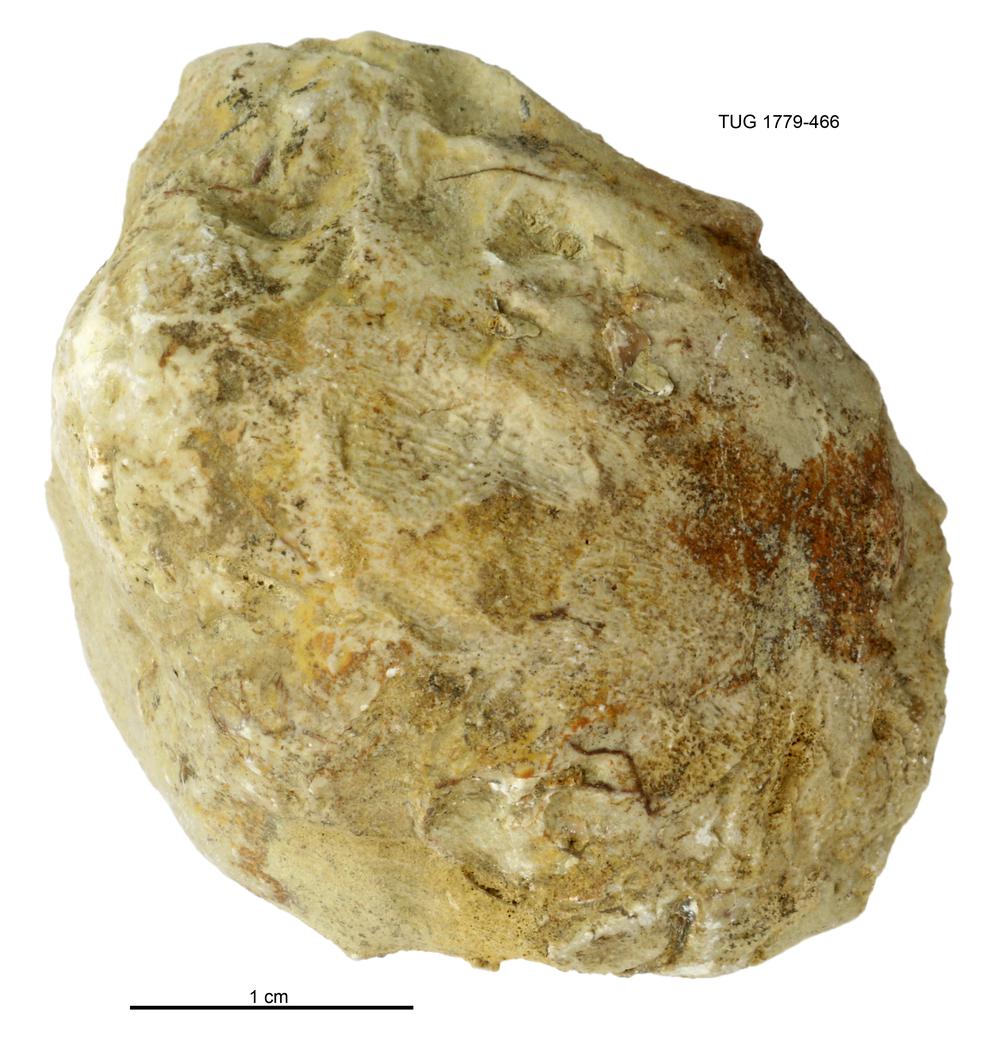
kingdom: Animalia
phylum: Mollusca
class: Bivalvia
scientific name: Bivalvia
